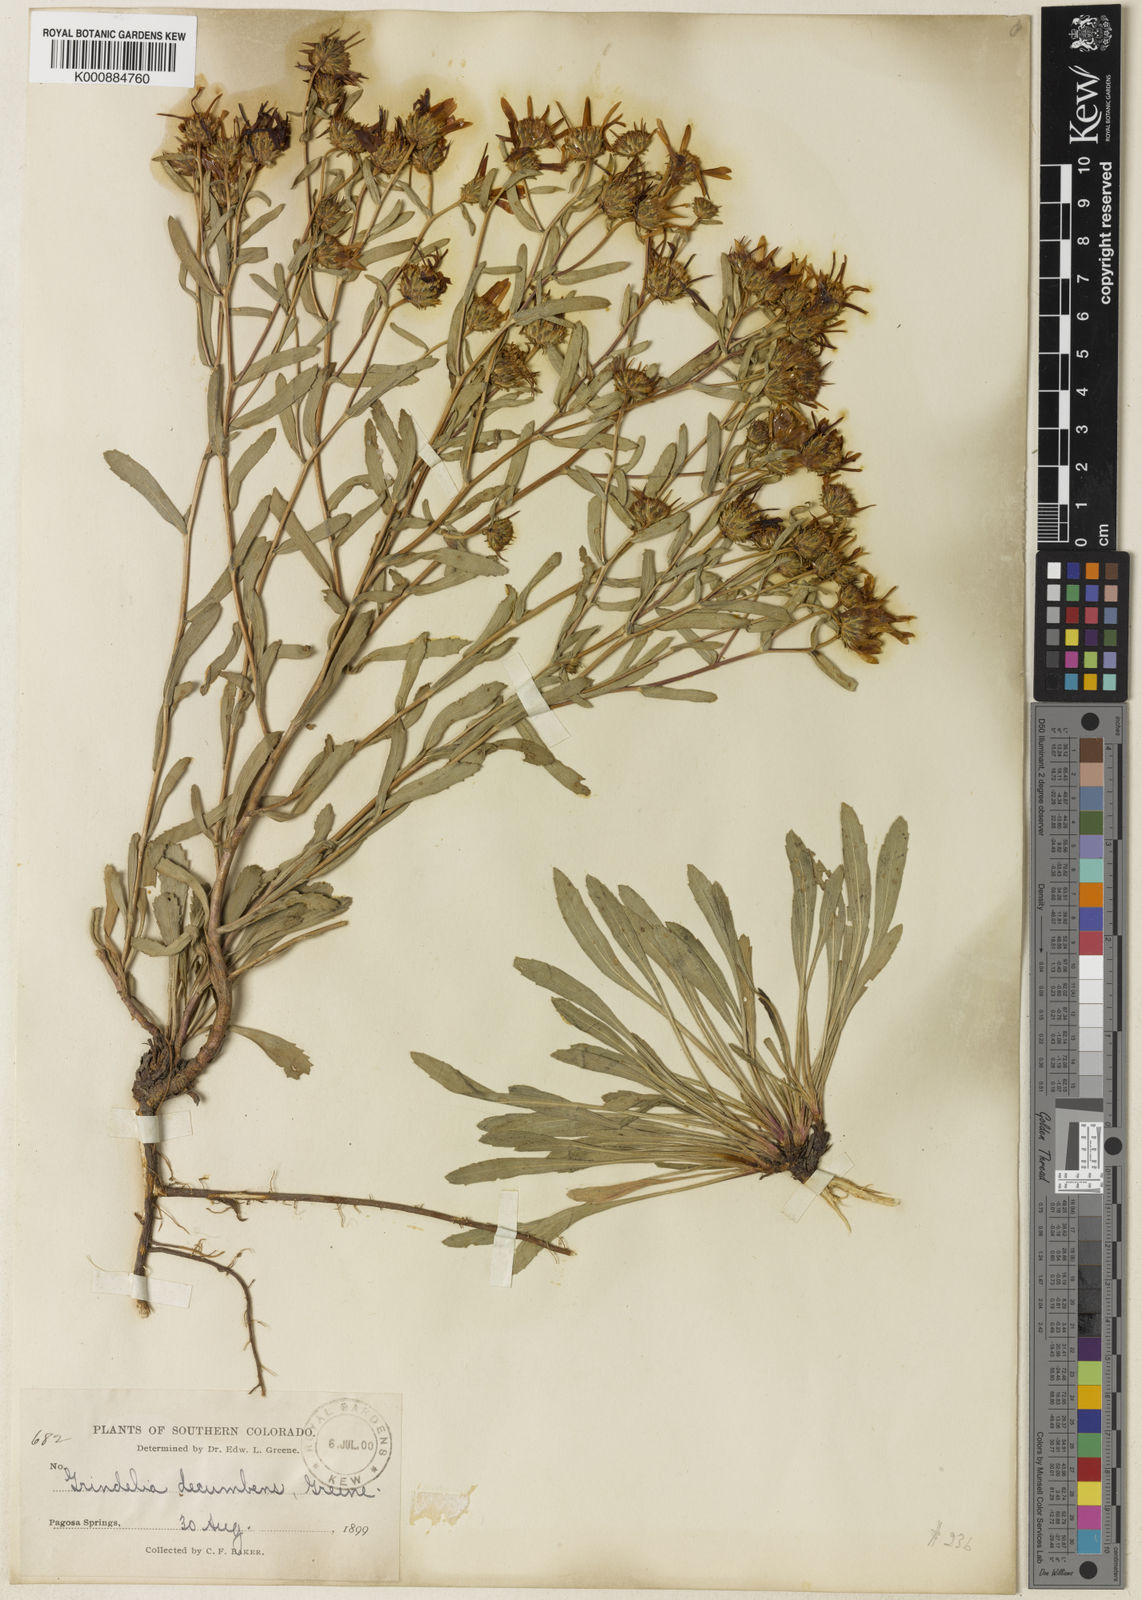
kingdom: Plantae
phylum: Tracheophyta
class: Magnoliopsida
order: Asterales
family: Asteraceae
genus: Grindelia
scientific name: Grindelia
